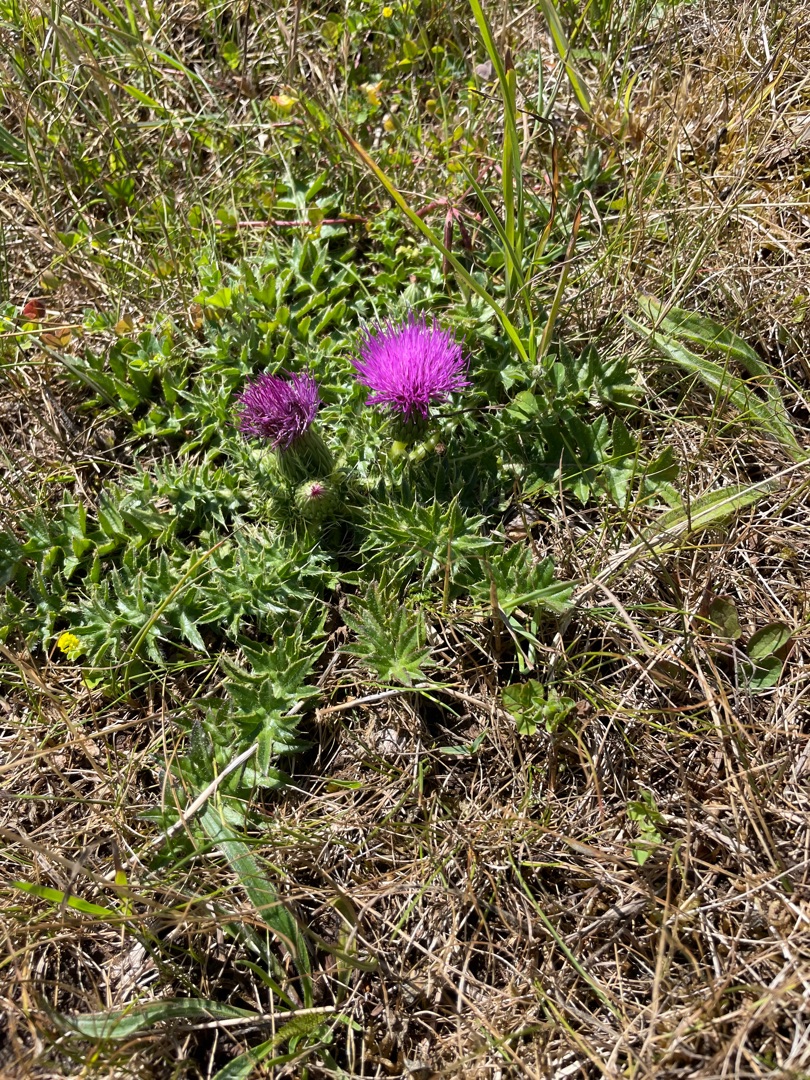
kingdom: Plantae
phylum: Tracheophyta
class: Magnoliopsida
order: Asterales
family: Asteraceae
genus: Cirsium
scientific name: Cirsium acaule
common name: Lav tidsel
